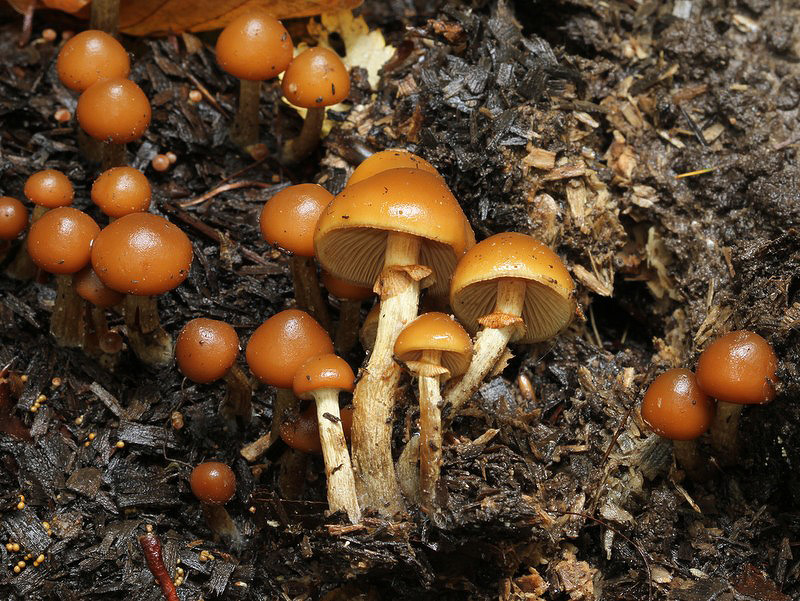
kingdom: Fungi
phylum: Basidiomycota
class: Agaricomycetes
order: Agaricales
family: Hymenogastraceae
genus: Galerina
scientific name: Galerina marginata
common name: randbæltet hjelmhat
